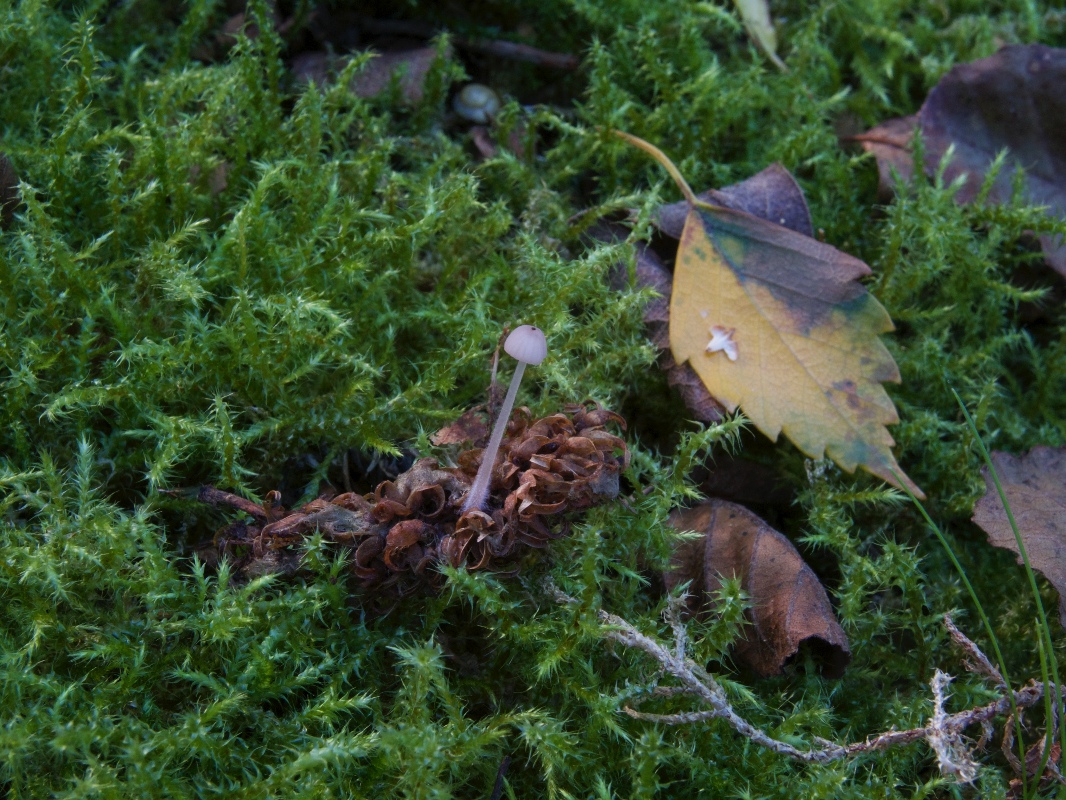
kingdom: Fungi
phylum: Basidiomycota
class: Agaricomycetes
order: Agaricales
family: Mycenaceae
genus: Mycena
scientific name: Mycena albidolilacea
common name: lyslilla huesvamp
